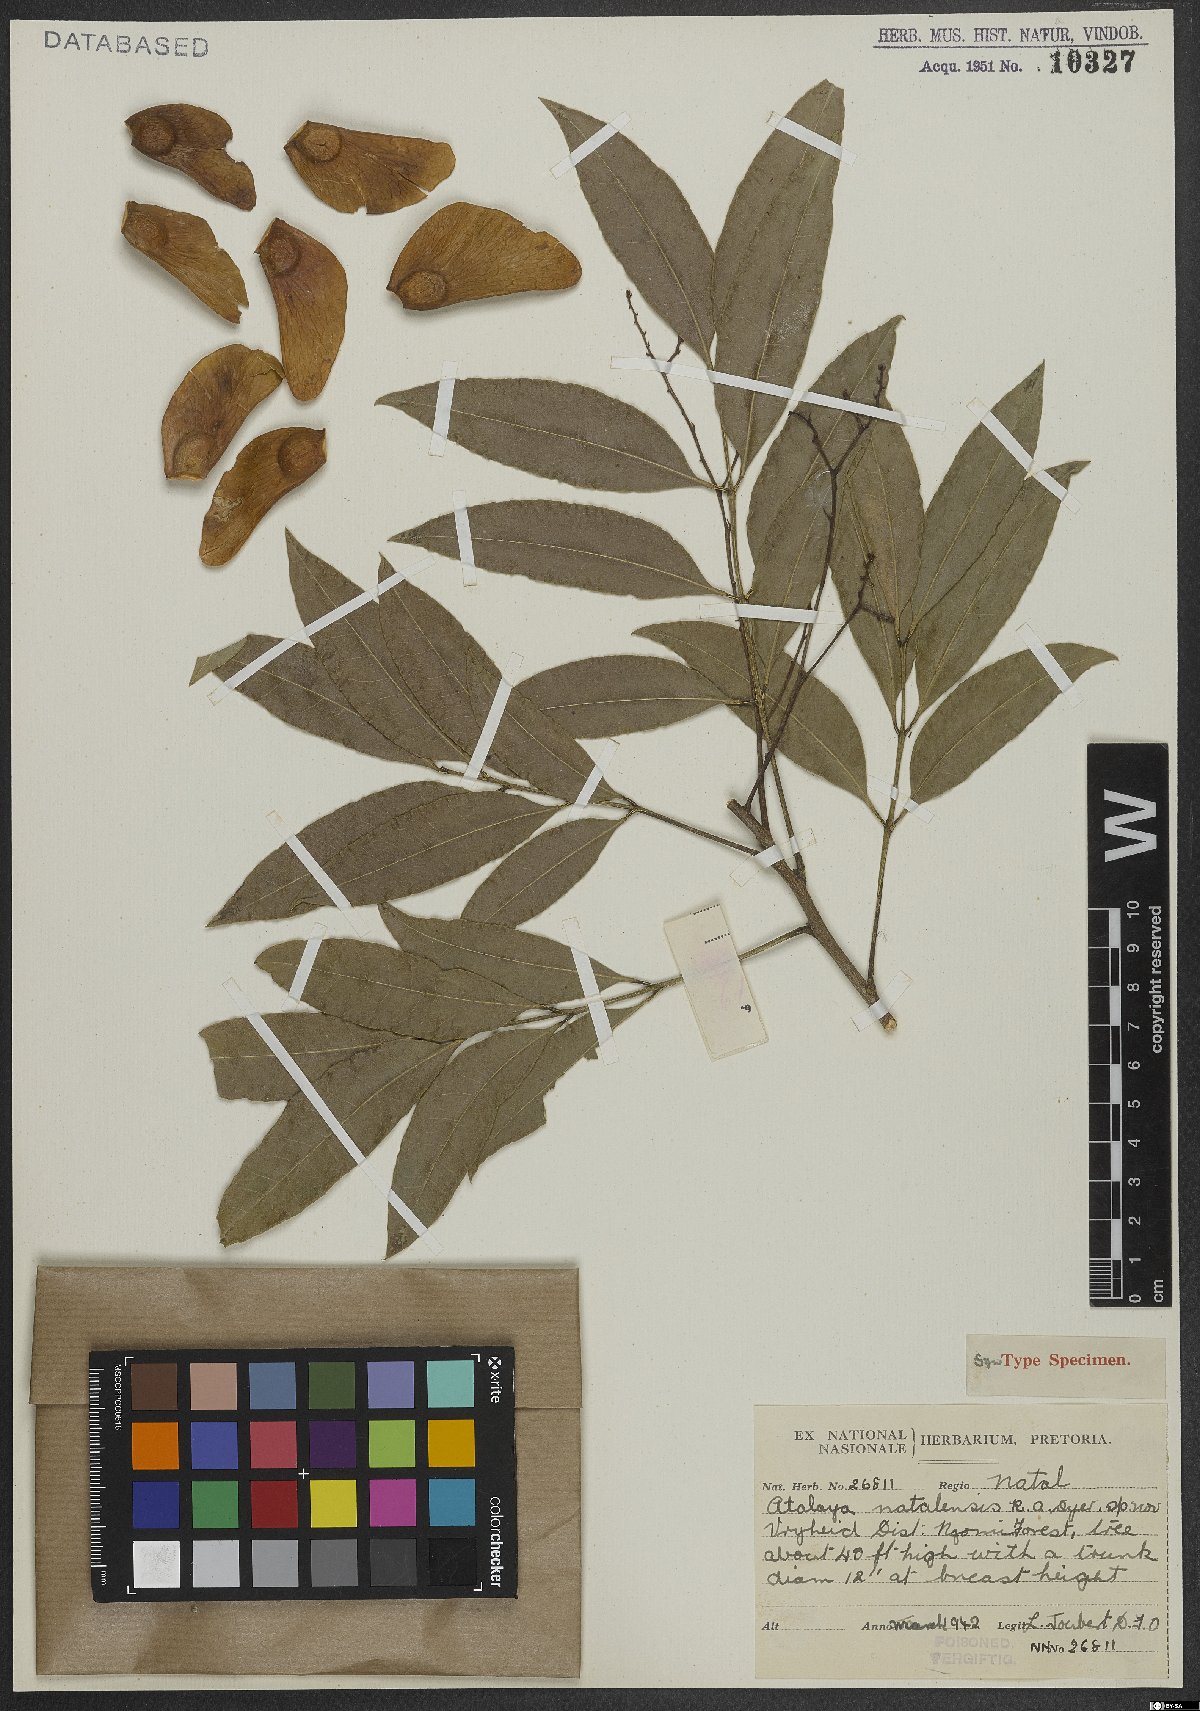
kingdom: Plantae
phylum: Tracheophyta
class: Magnoliopsida
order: Sapindales
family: Sapindaceae
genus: Atalaya
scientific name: Atalaya natalensis
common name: Forest krantz ash
